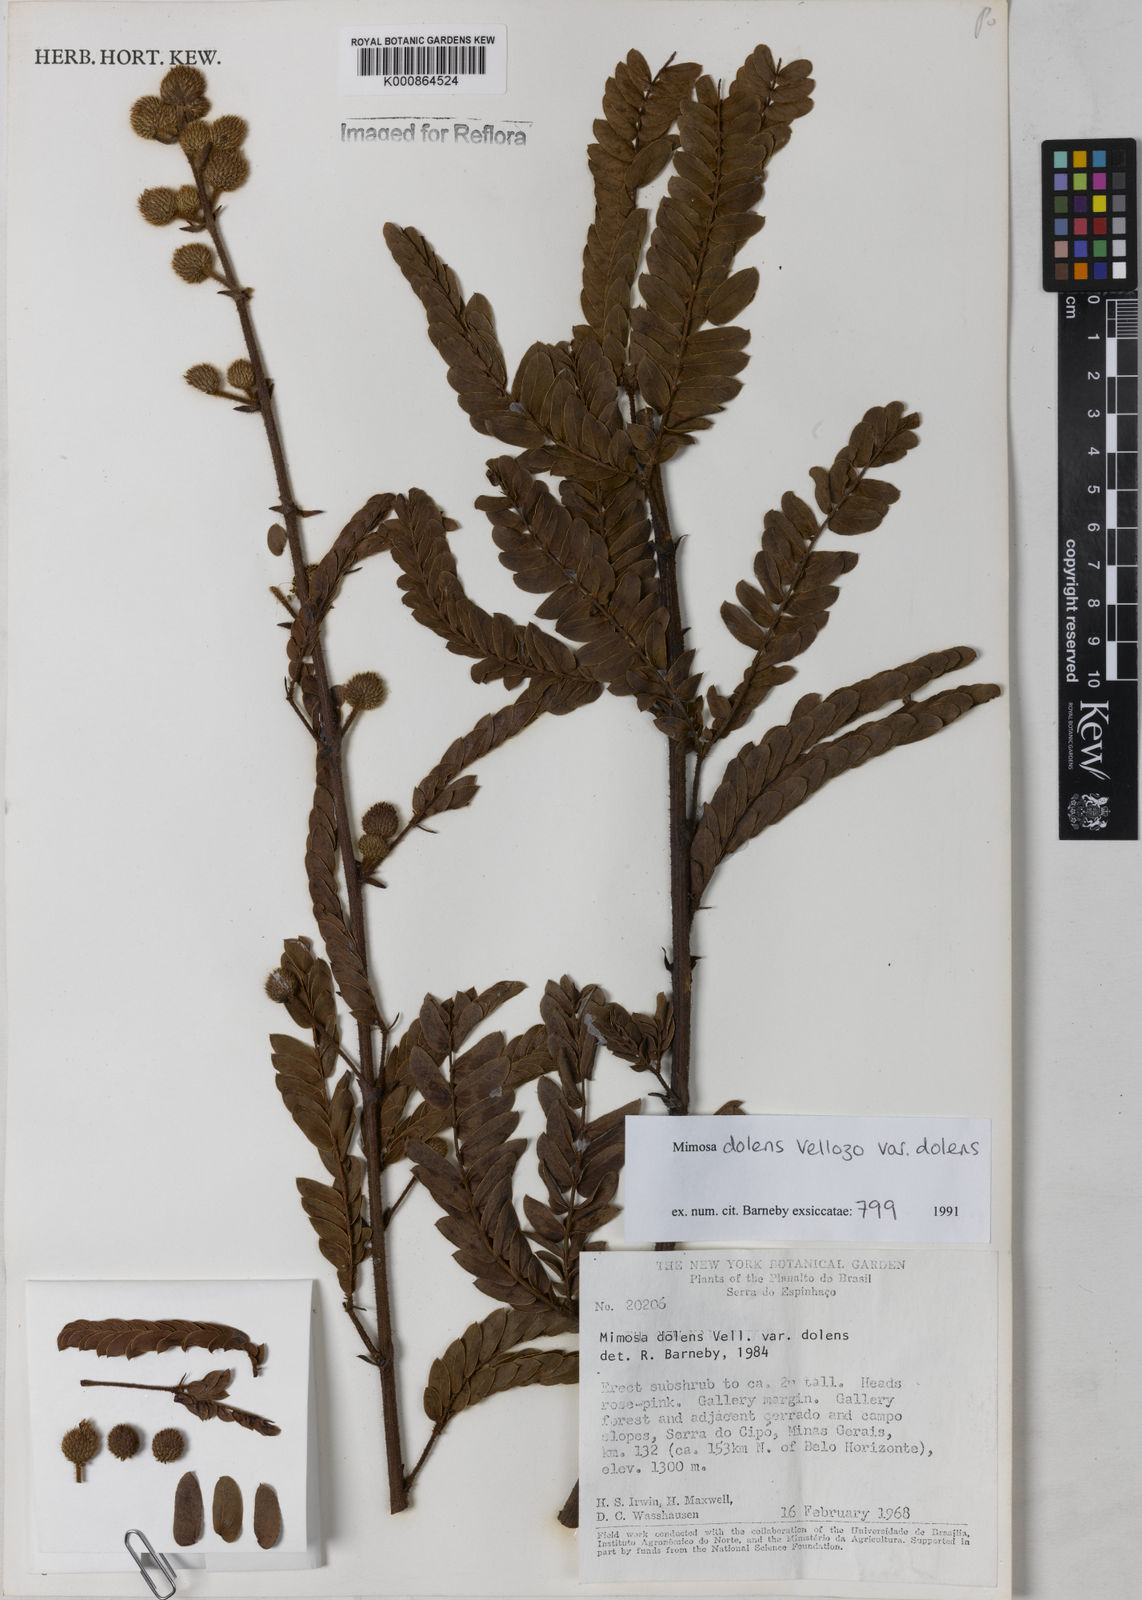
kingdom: Plantae
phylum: Tracheophyta
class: Magnoliopsida
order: Fabales
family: Fabaceae
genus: Mimosa
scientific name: Mimosa dolens
